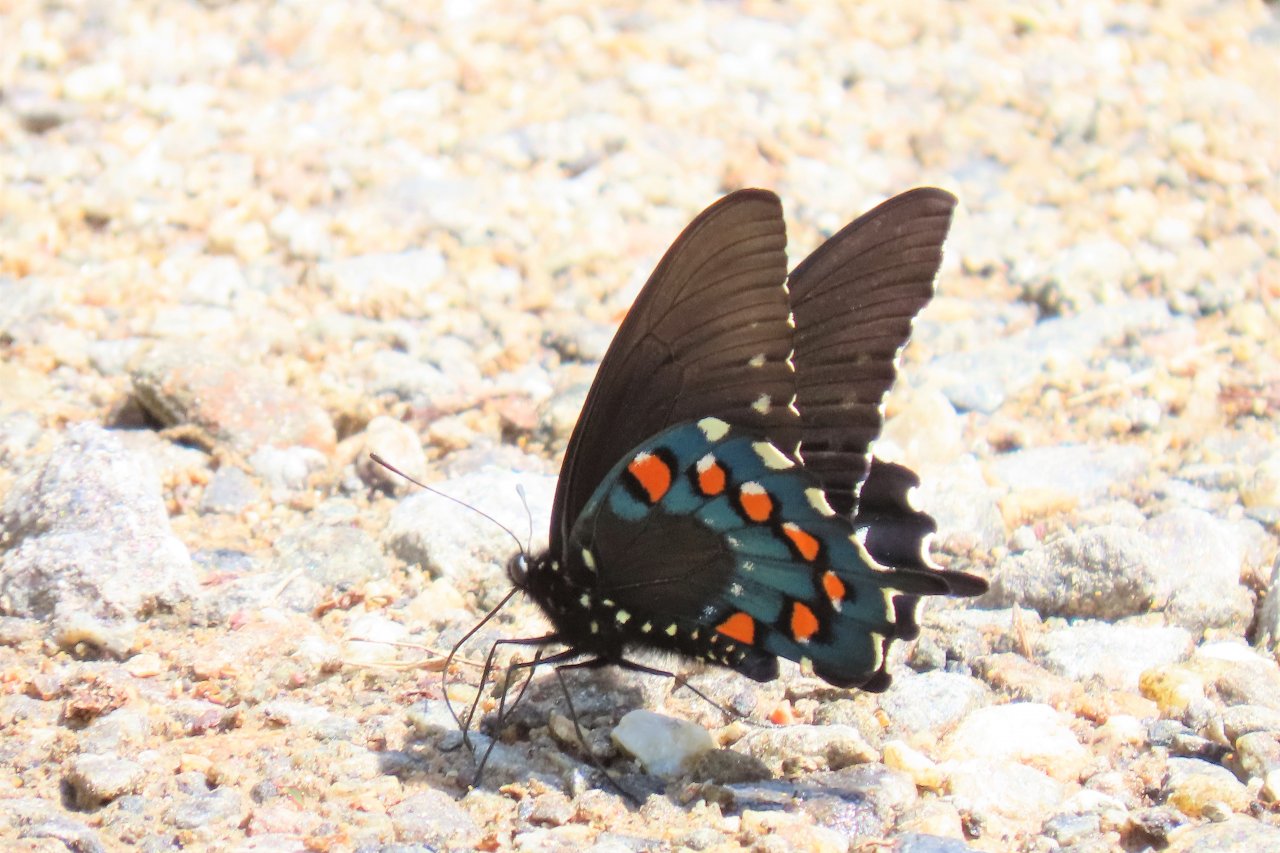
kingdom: Animalia
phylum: Arthropoda
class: Insecta
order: Lepidoptera
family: Papilionidae
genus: Battus
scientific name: Battus philenor
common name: Pipevine Swallowtail
